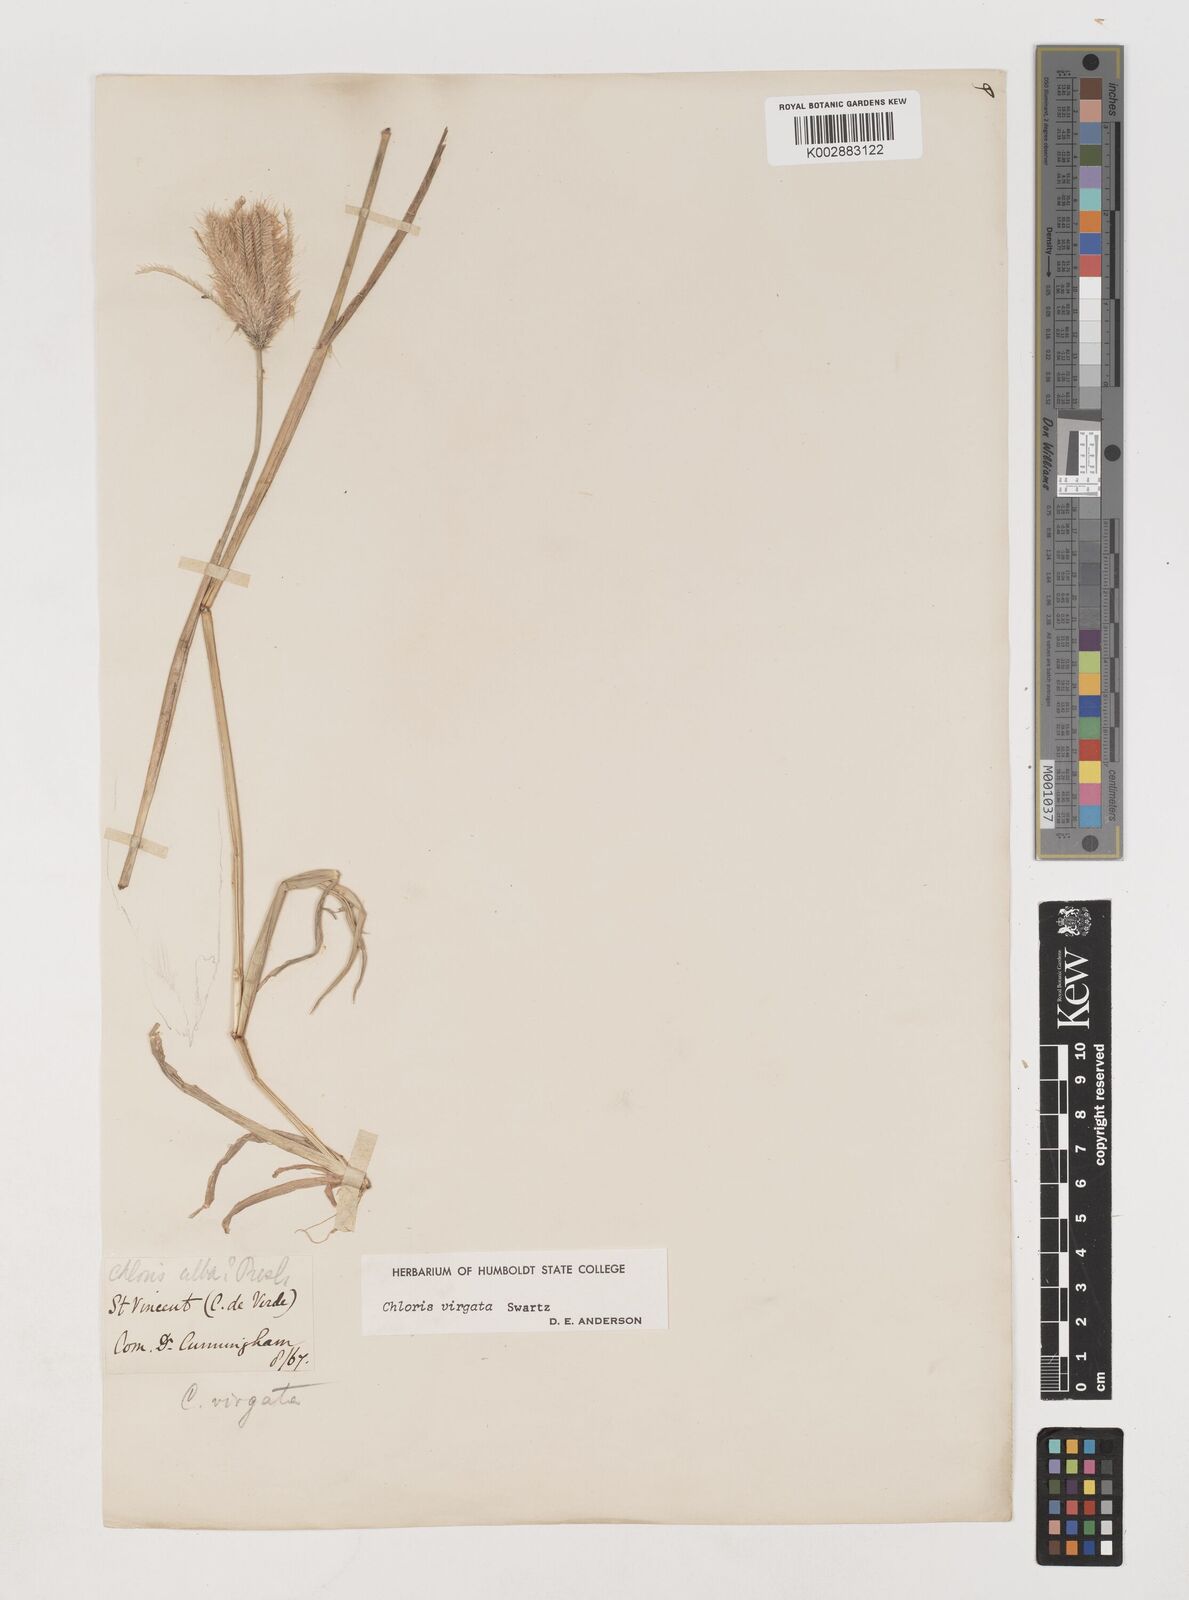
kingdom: Plantae
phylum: Tracheophyta
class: Liliopsida
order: Poales
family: Poaceae
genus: Chloris
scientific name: Chloris virgata
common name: Feathery rhodes-grass
